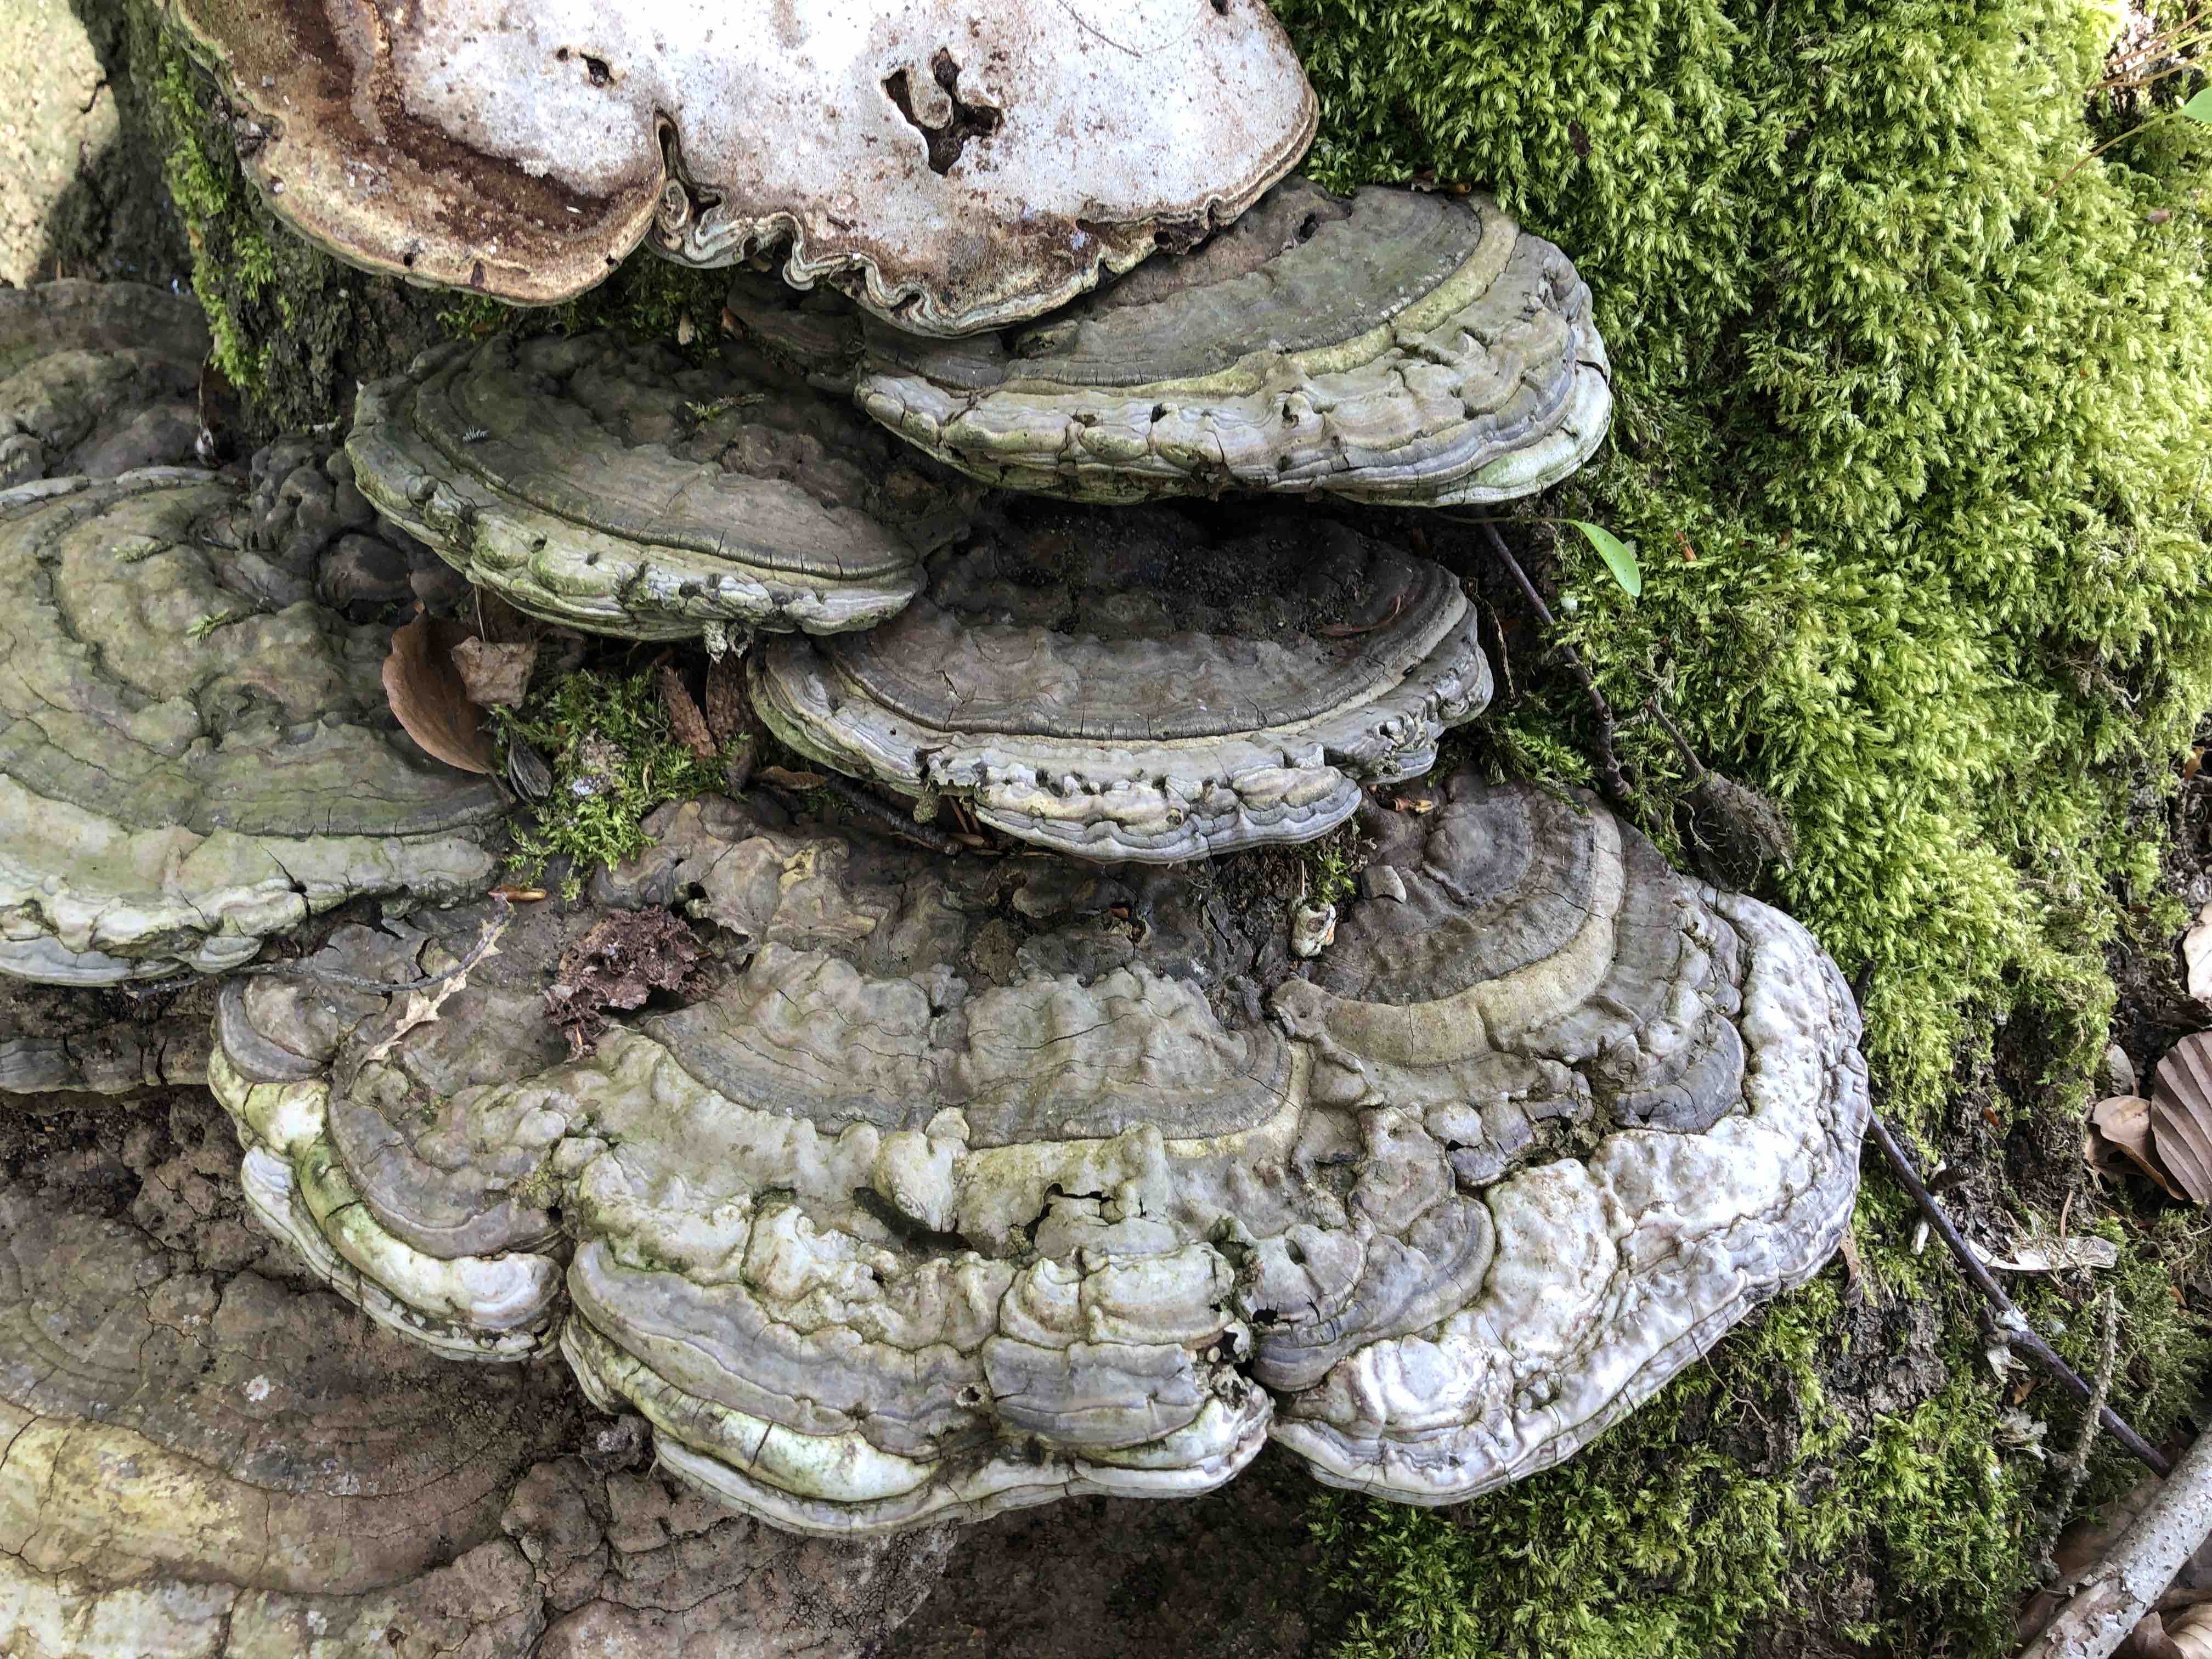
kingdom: Fungi
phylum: Basidiomycota
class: Agaricomycetes
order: Polyporales
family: Polyporaceae
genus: Ganoderma
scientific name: Ganoderma applanatum
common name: flad lakporesvamp
